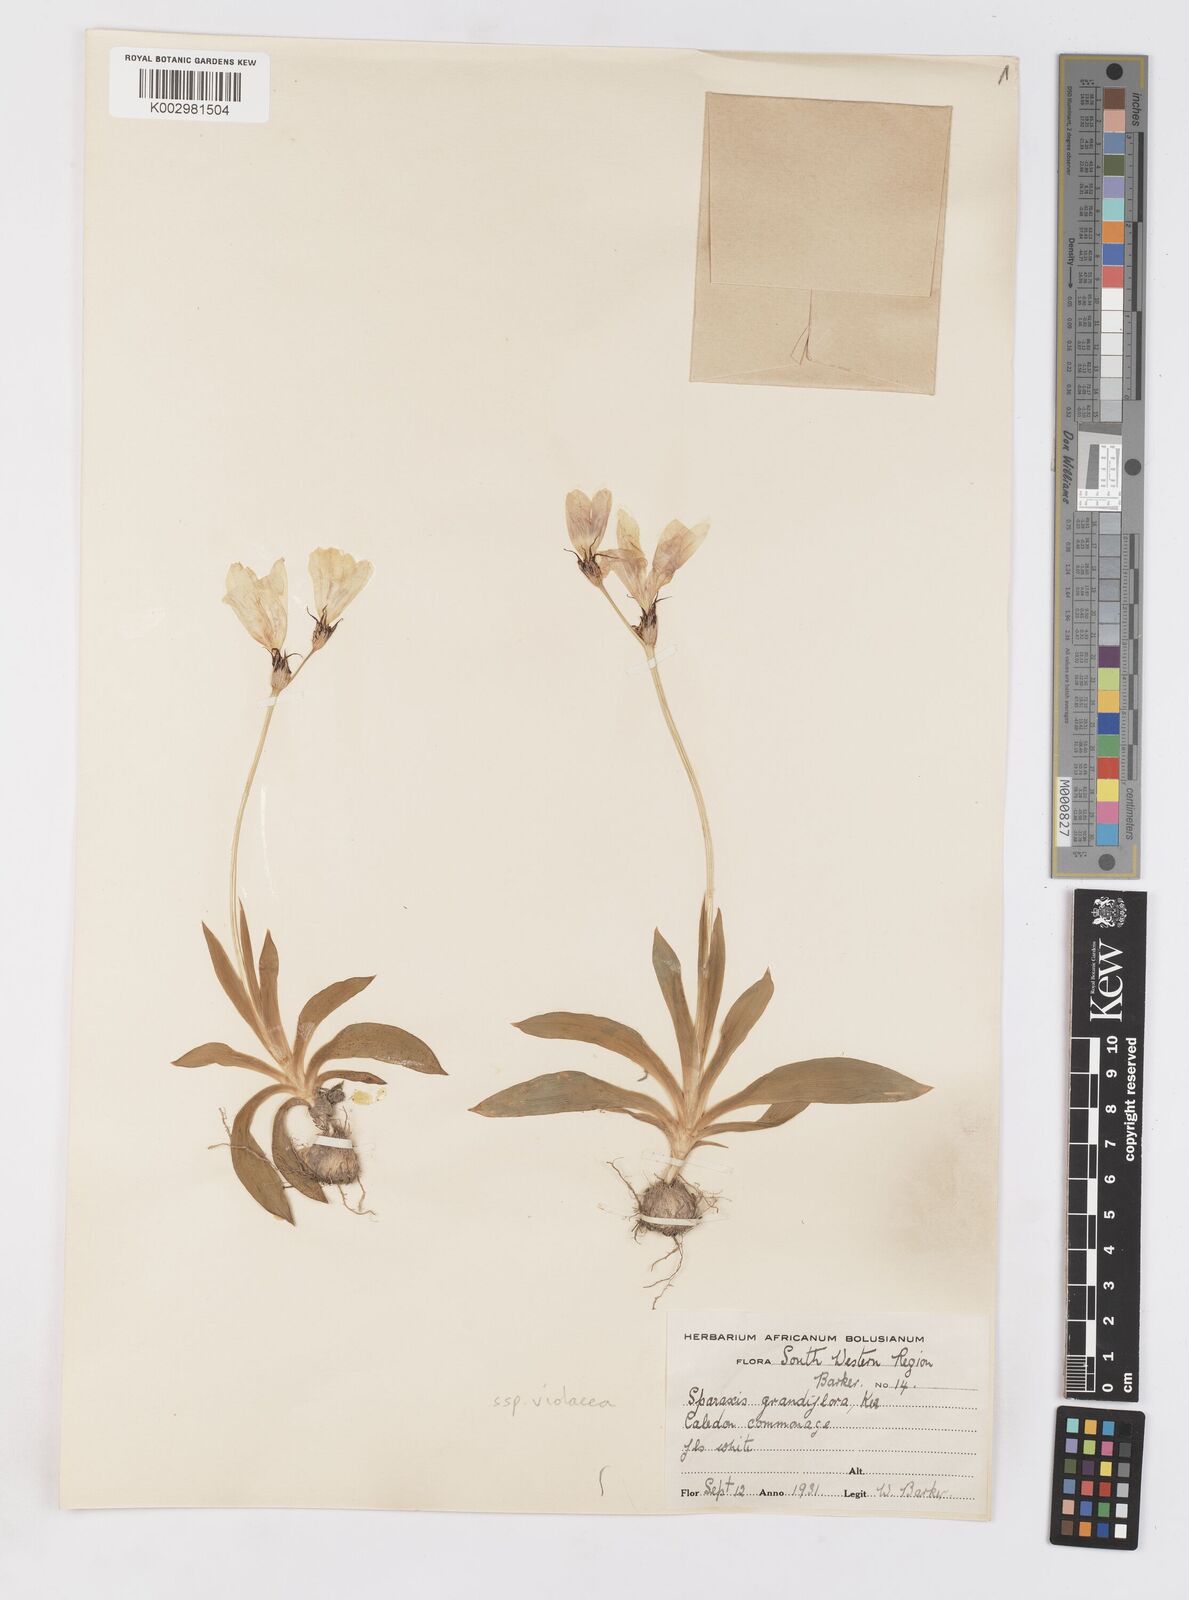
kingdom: Plantae
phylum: Tracheophyta
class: Liliopsida
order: Asparagales
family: Iridaceae
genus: Sparaxis
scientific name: Sparaxis grandiflora
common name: Plain harlequin-flower
